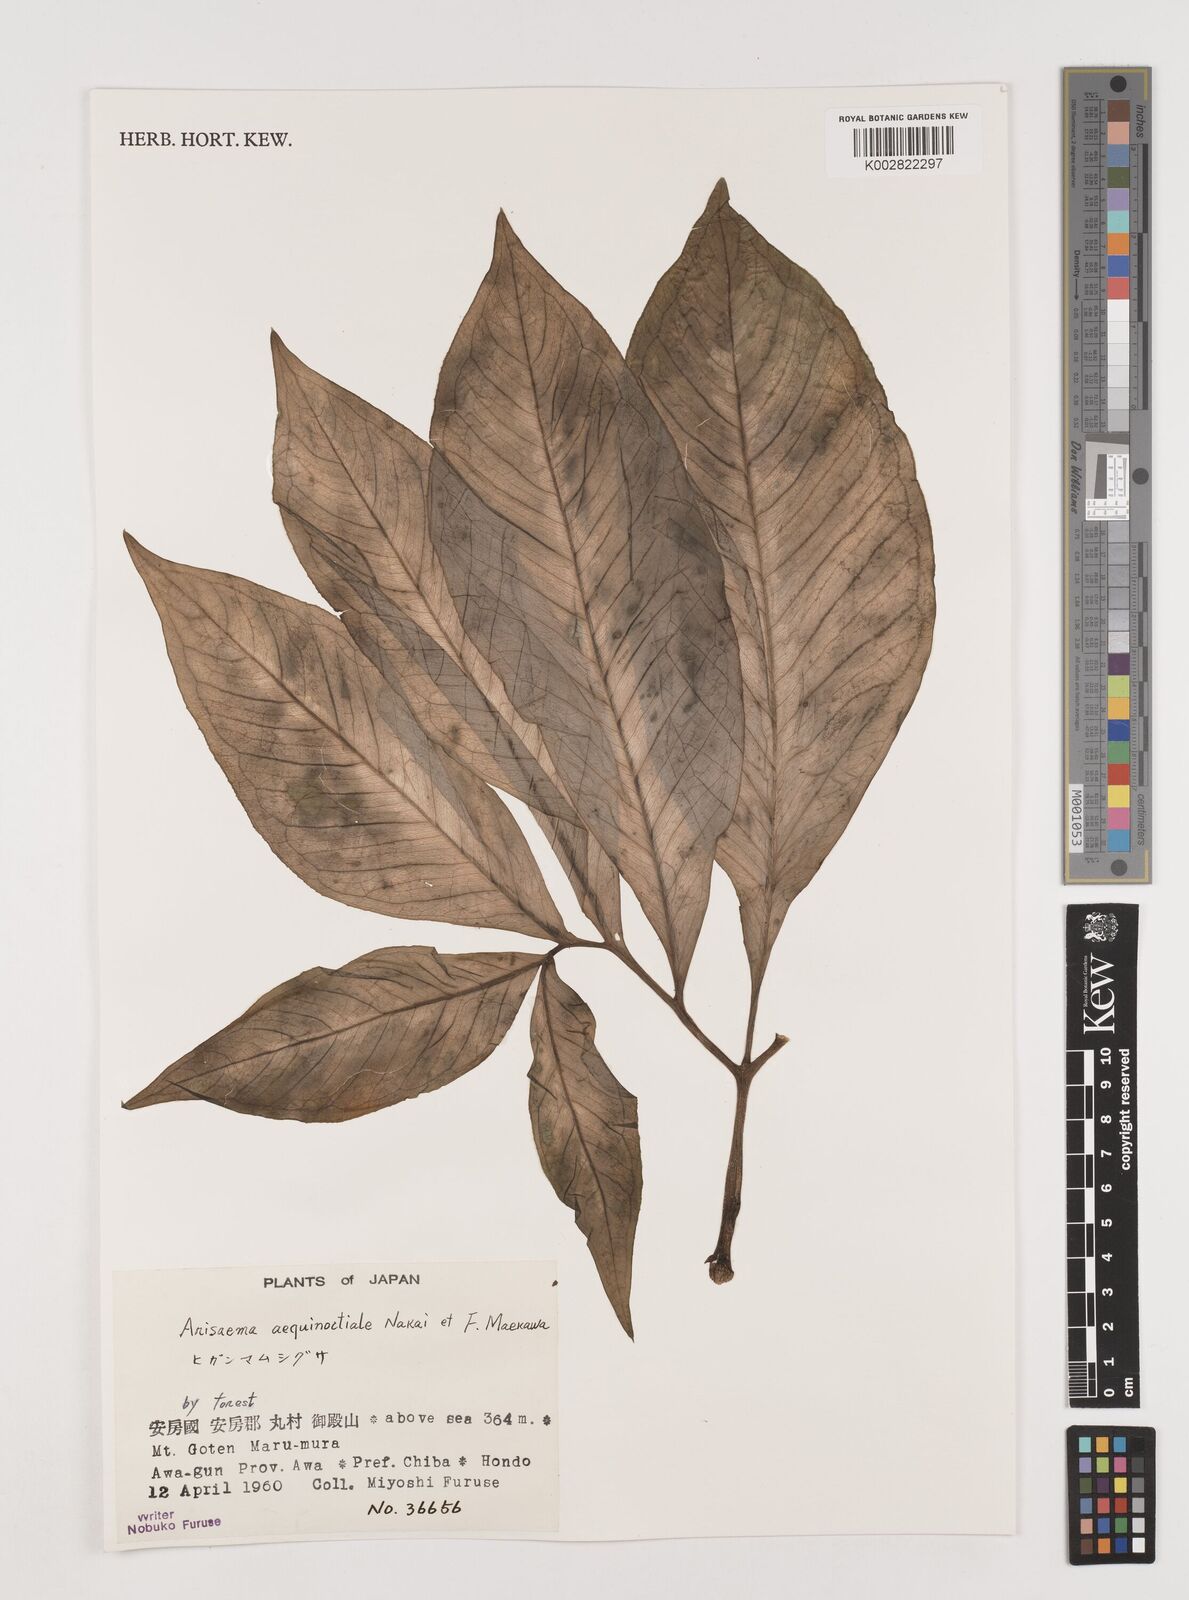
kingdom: Plantae
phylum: Tracheophyta
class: Liliopsida
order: Alismatales
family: Araceae
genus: Arisaema
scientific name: Arisaema aequinoctiale
